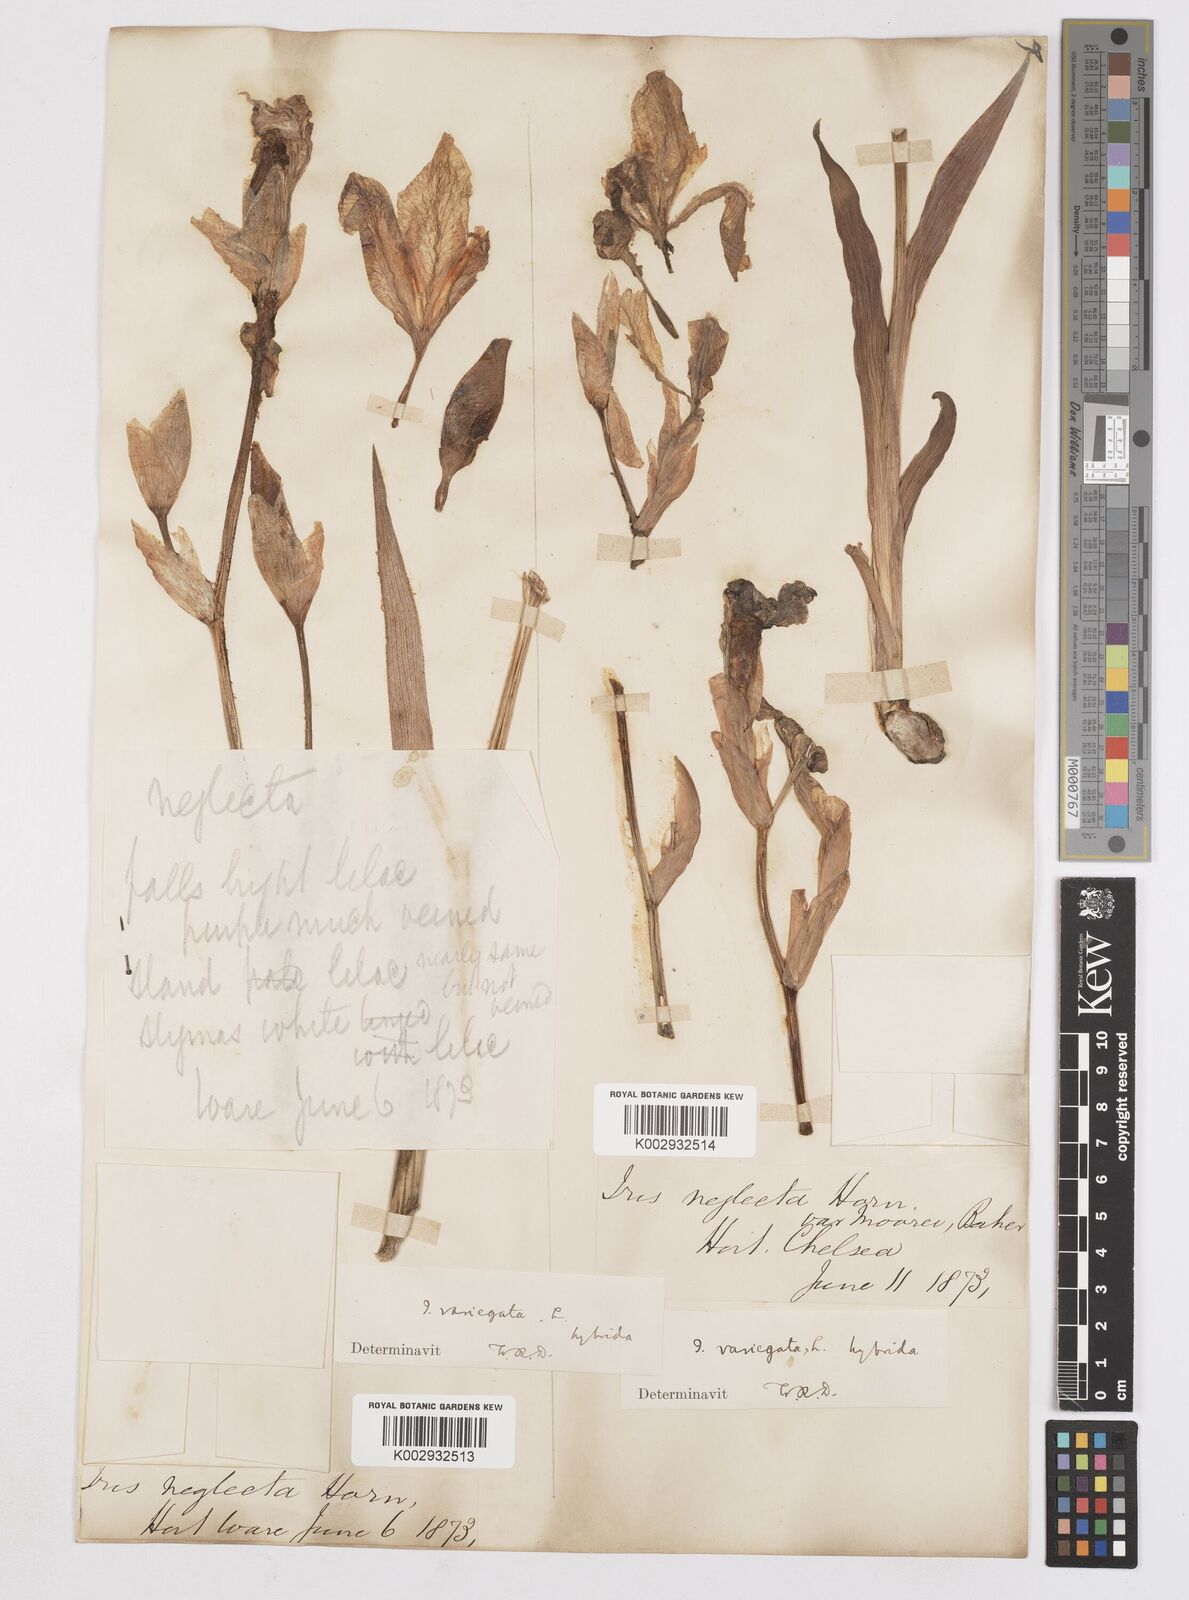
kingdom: Plantae
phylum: Tracheophyta
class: Liliopsida
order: Asparagales
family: Iridaceae
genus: Iris
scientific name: Iris
